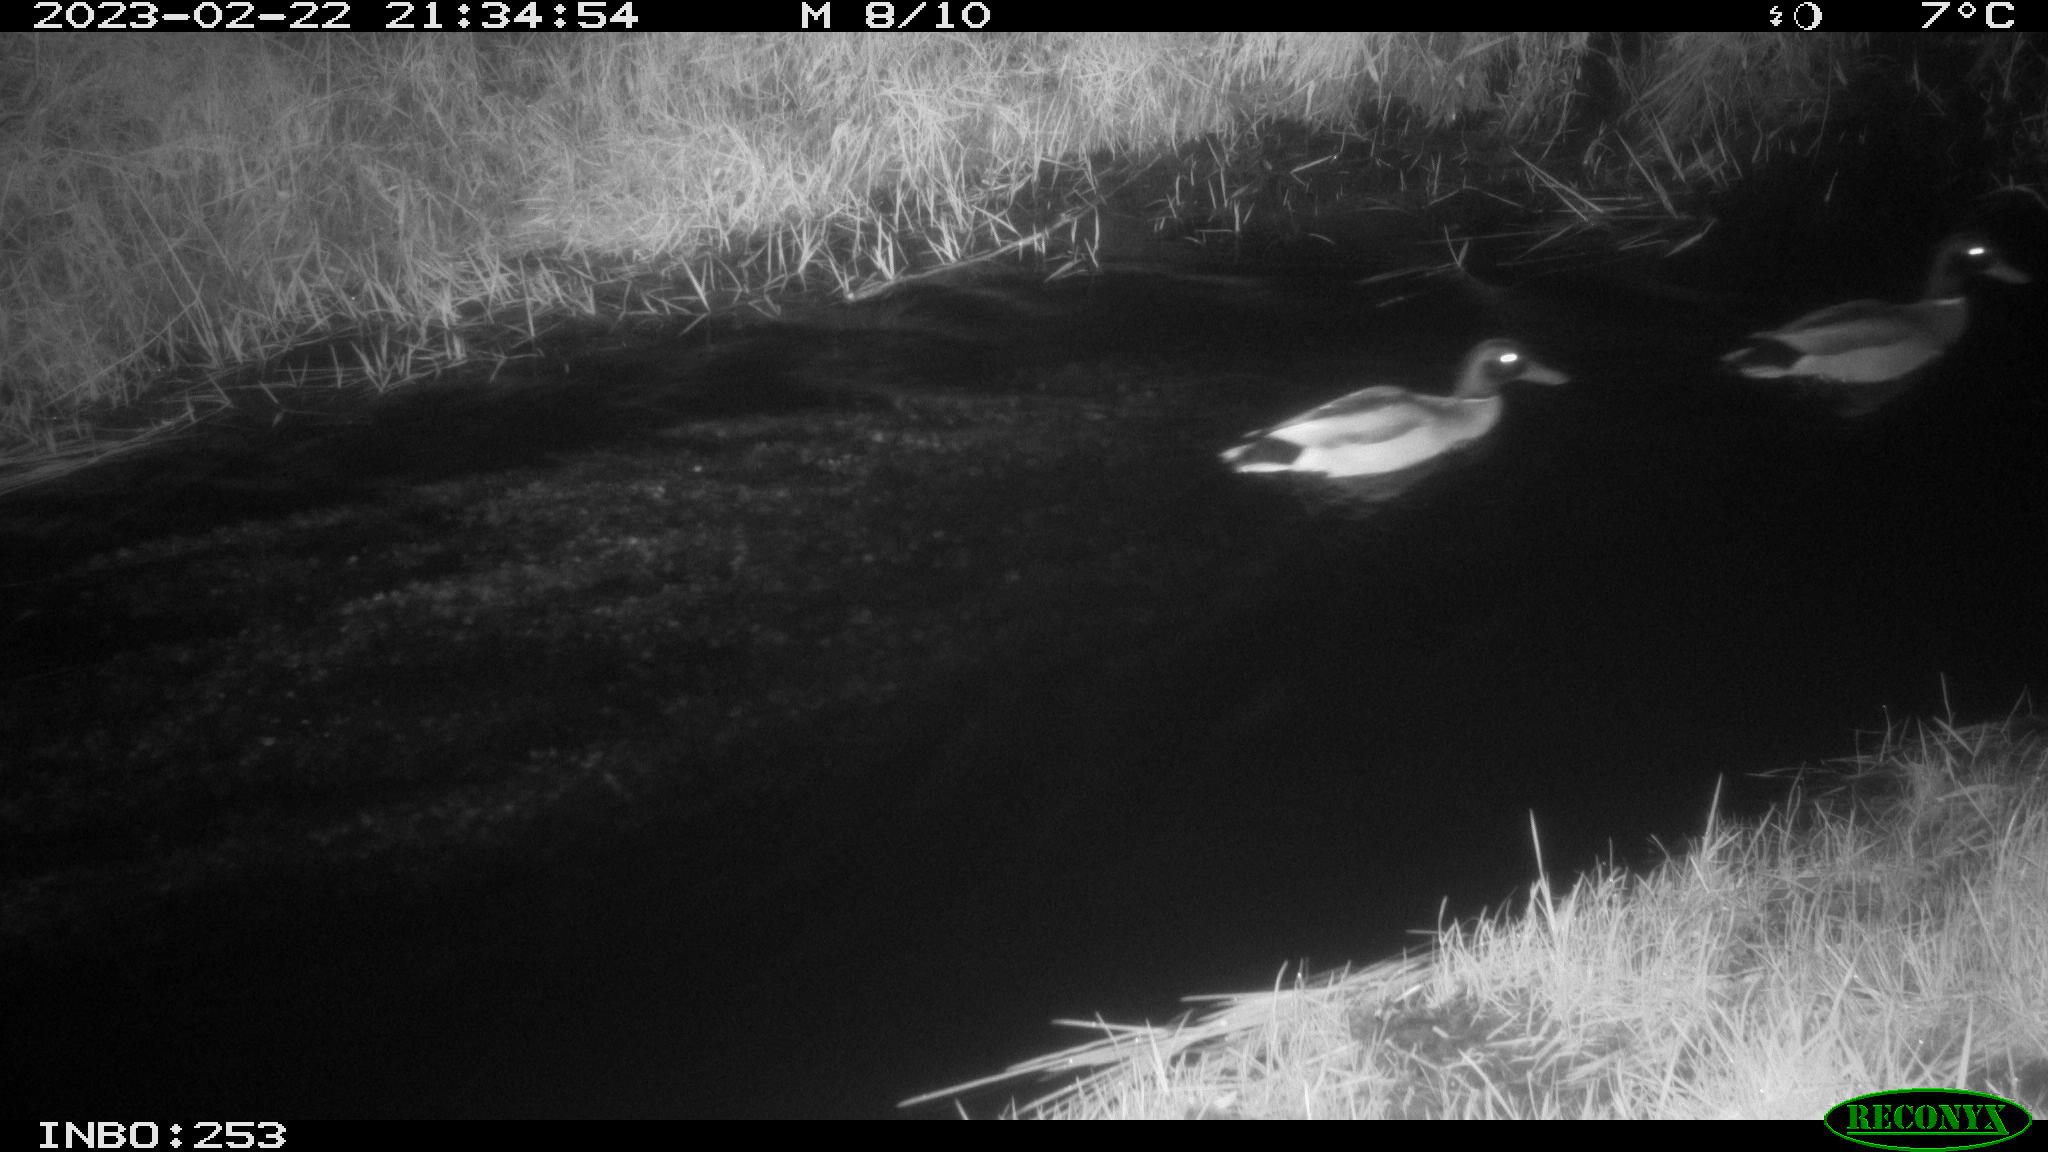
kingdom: Animalia
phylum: Chordata
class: Aves
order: Anseriformes
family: Anatidae
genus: Anas
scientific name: Anas
